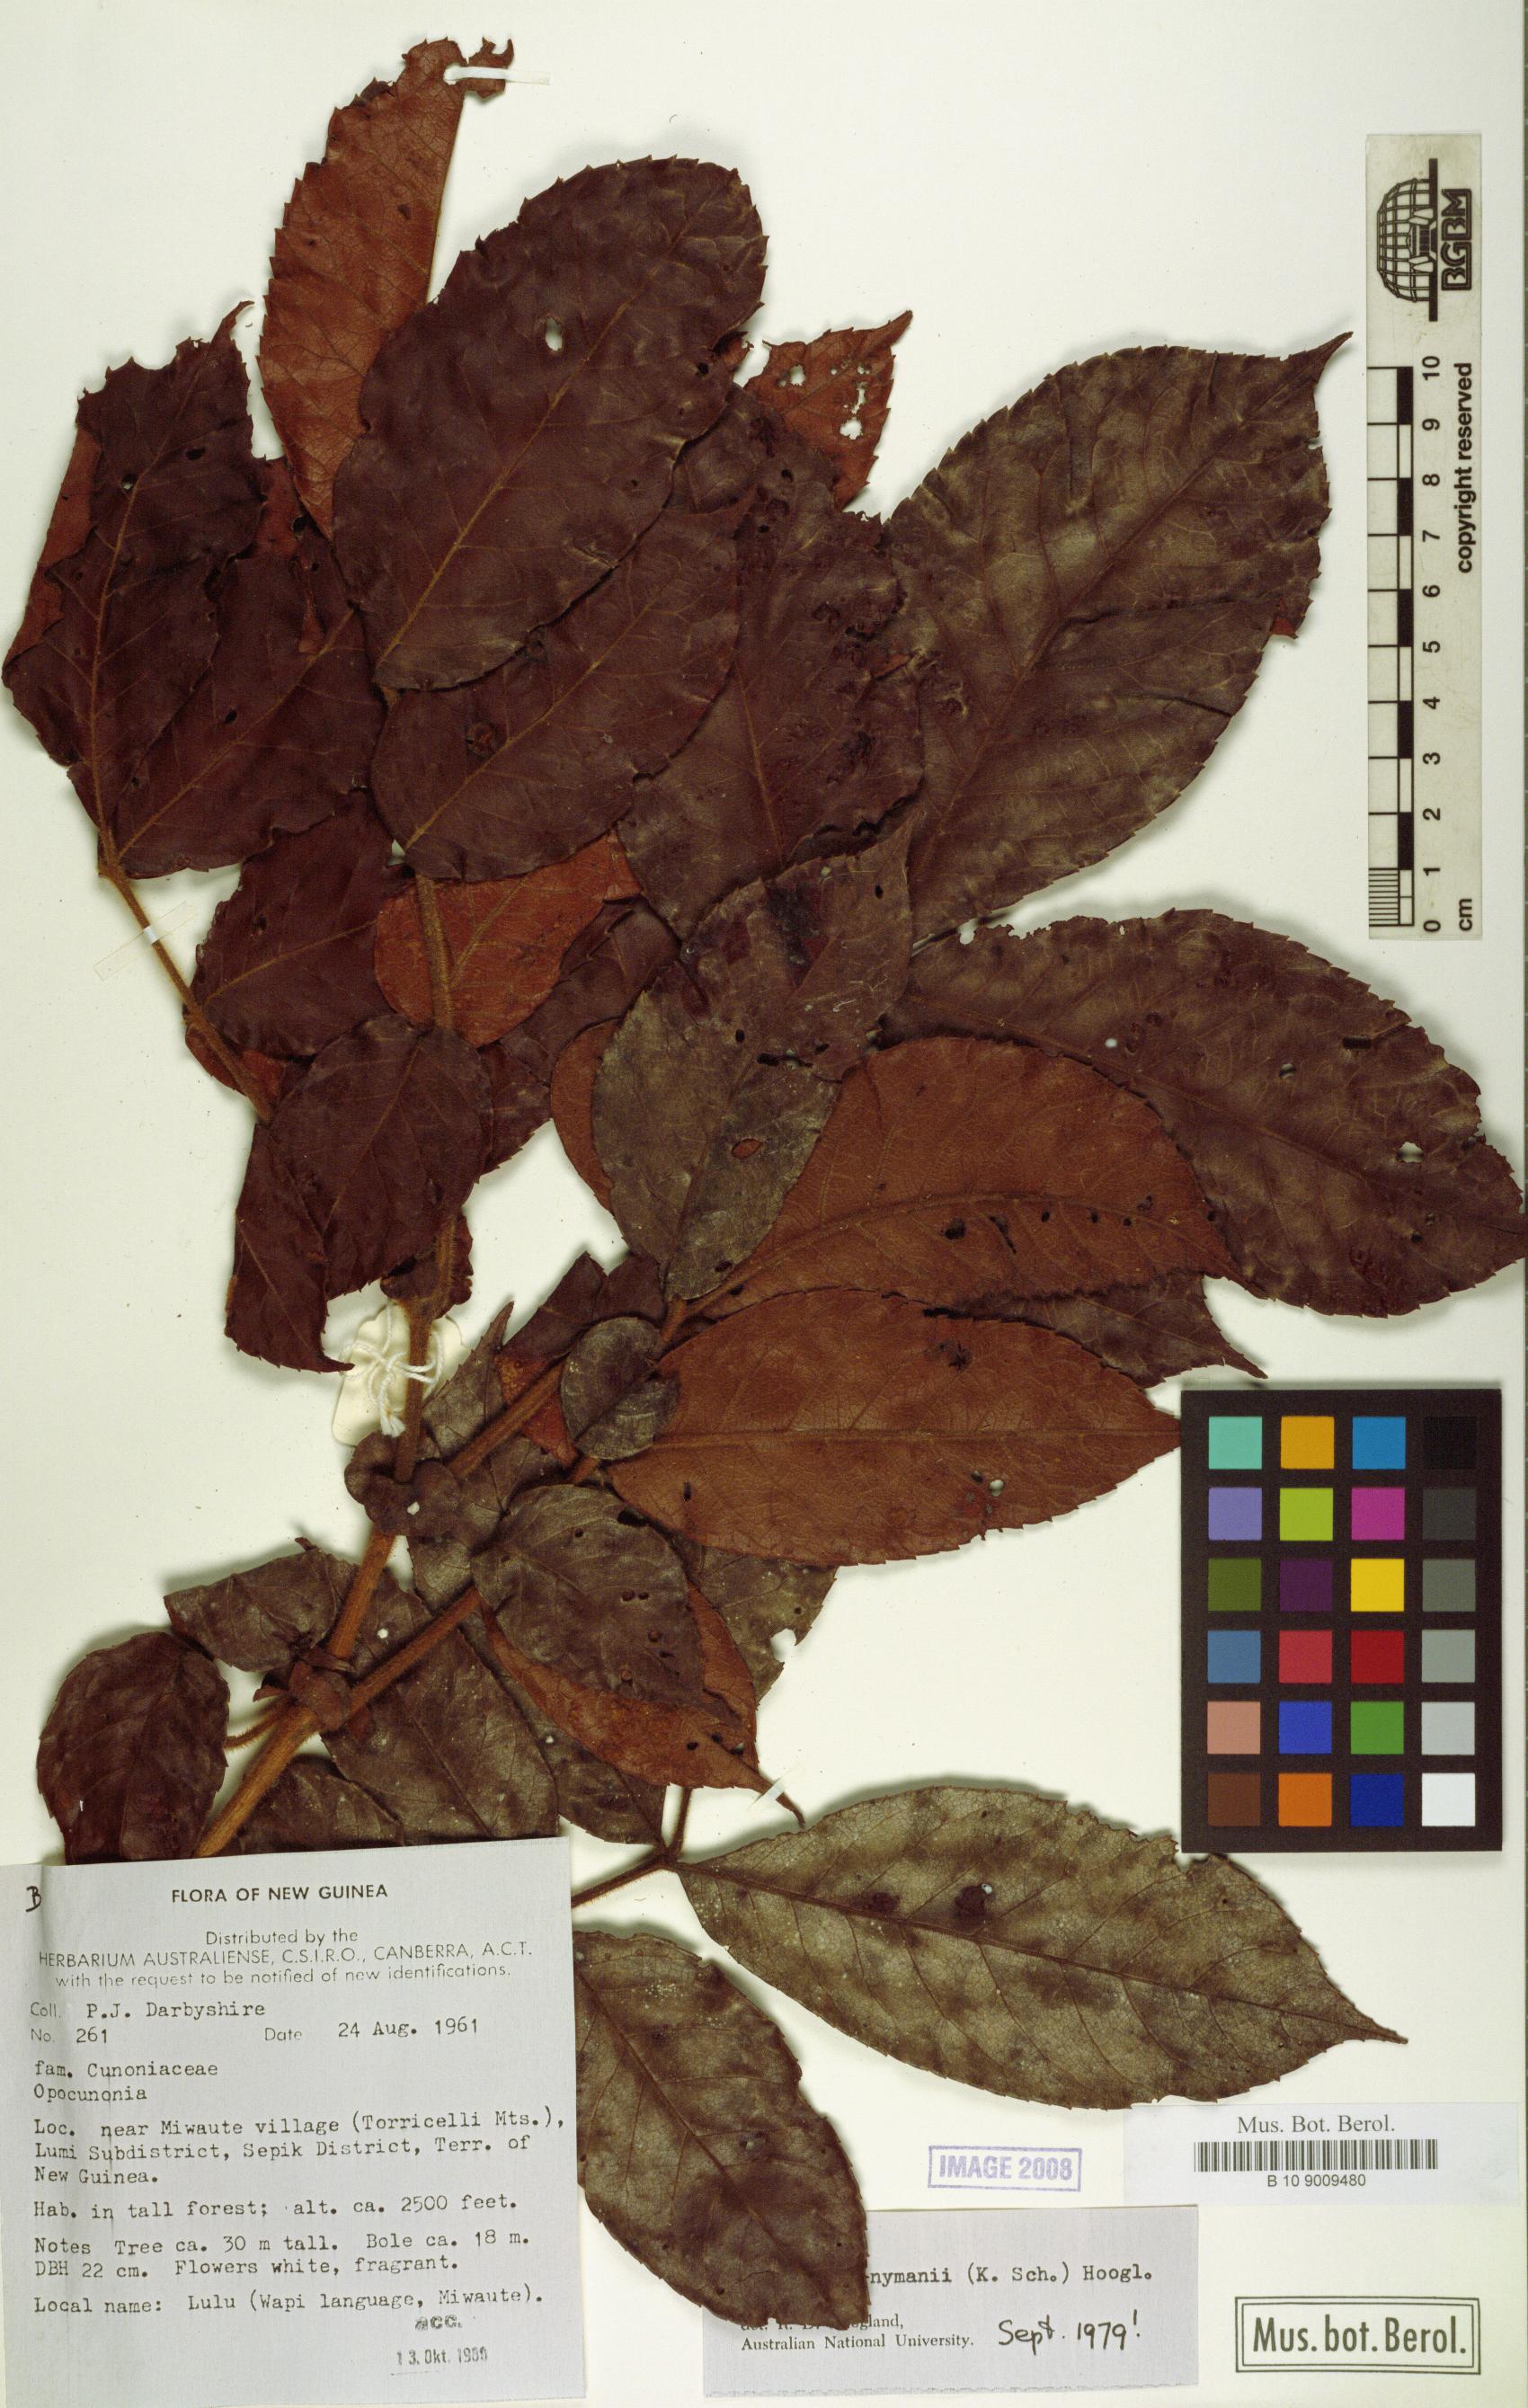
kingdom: Plantae
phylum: Tracheophyta
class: Magnoliopsida
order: Oxalidales
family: Cunoniaceae
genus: Opocunonia
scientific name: Opocunonia nymanii
